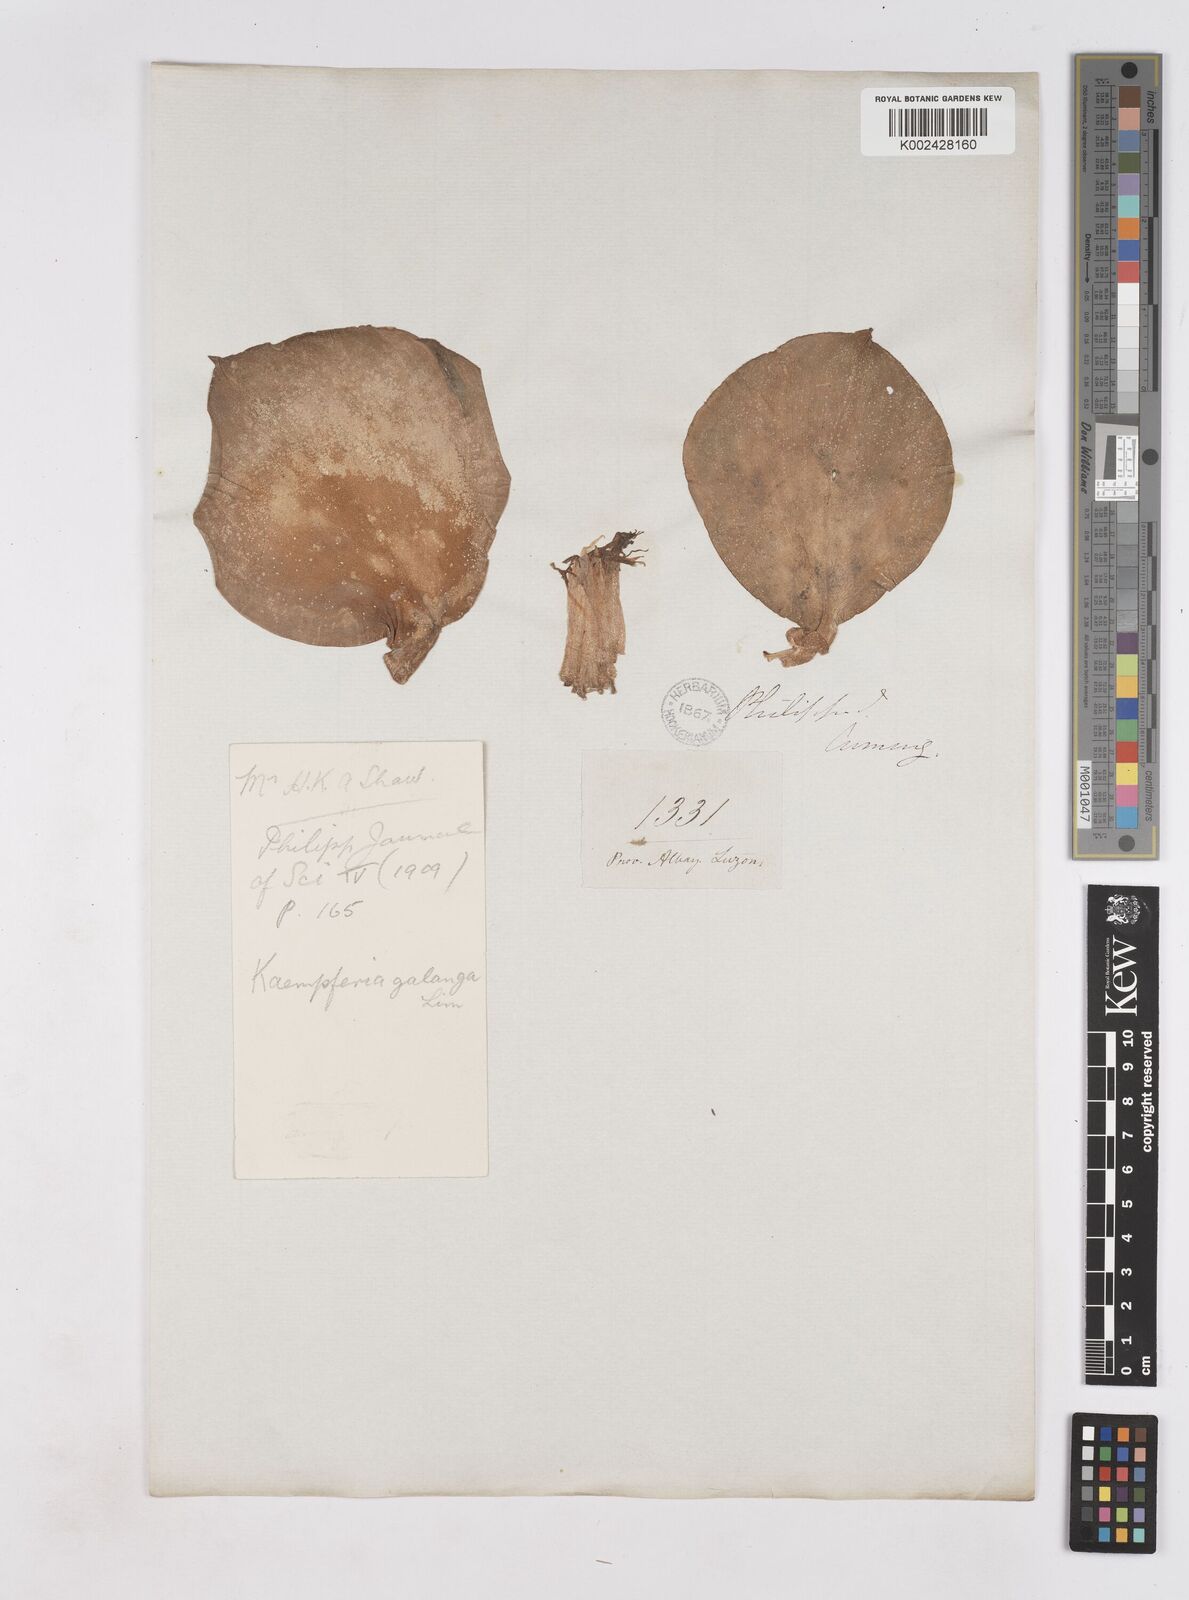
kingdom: Plantae
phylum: Tracheophyta
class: Liliopsida
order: Zingiberales
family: Zingiberaceae
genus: Kaempferia
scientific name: Kaempferia galanga
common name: Aromatic ginger
